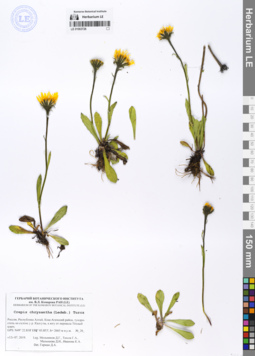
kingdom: Plantae
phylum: Tracheophyta
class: Magnoliopsida
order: Asterales
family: Asteraceae
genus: Crepis
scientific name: Crepis chrysantha
